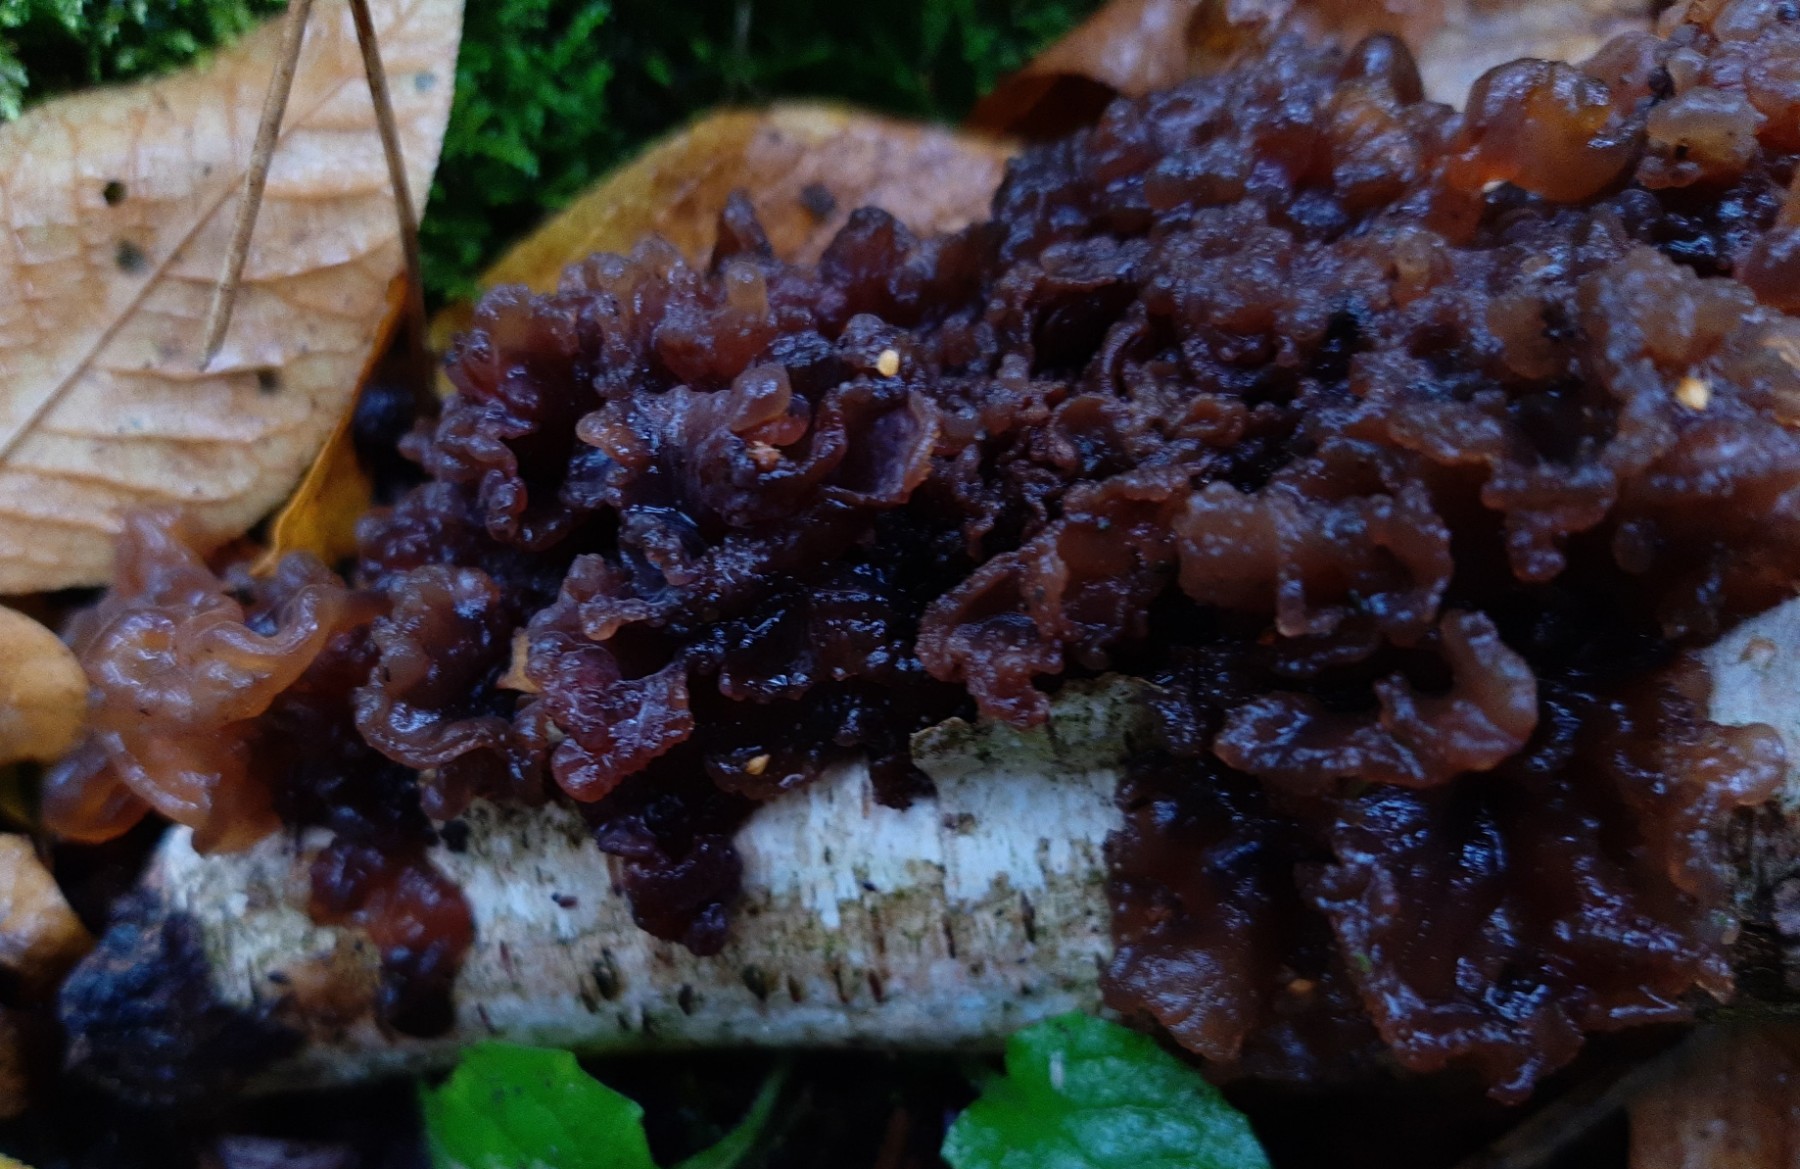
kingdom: Fungi
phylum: Basidiomycota
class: Tremellomycetes
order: Tremellales
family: Tremellaceae
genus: Phaeotremella
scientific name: Phaeotremella frondosa
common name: kæmpe-bævresvamp
